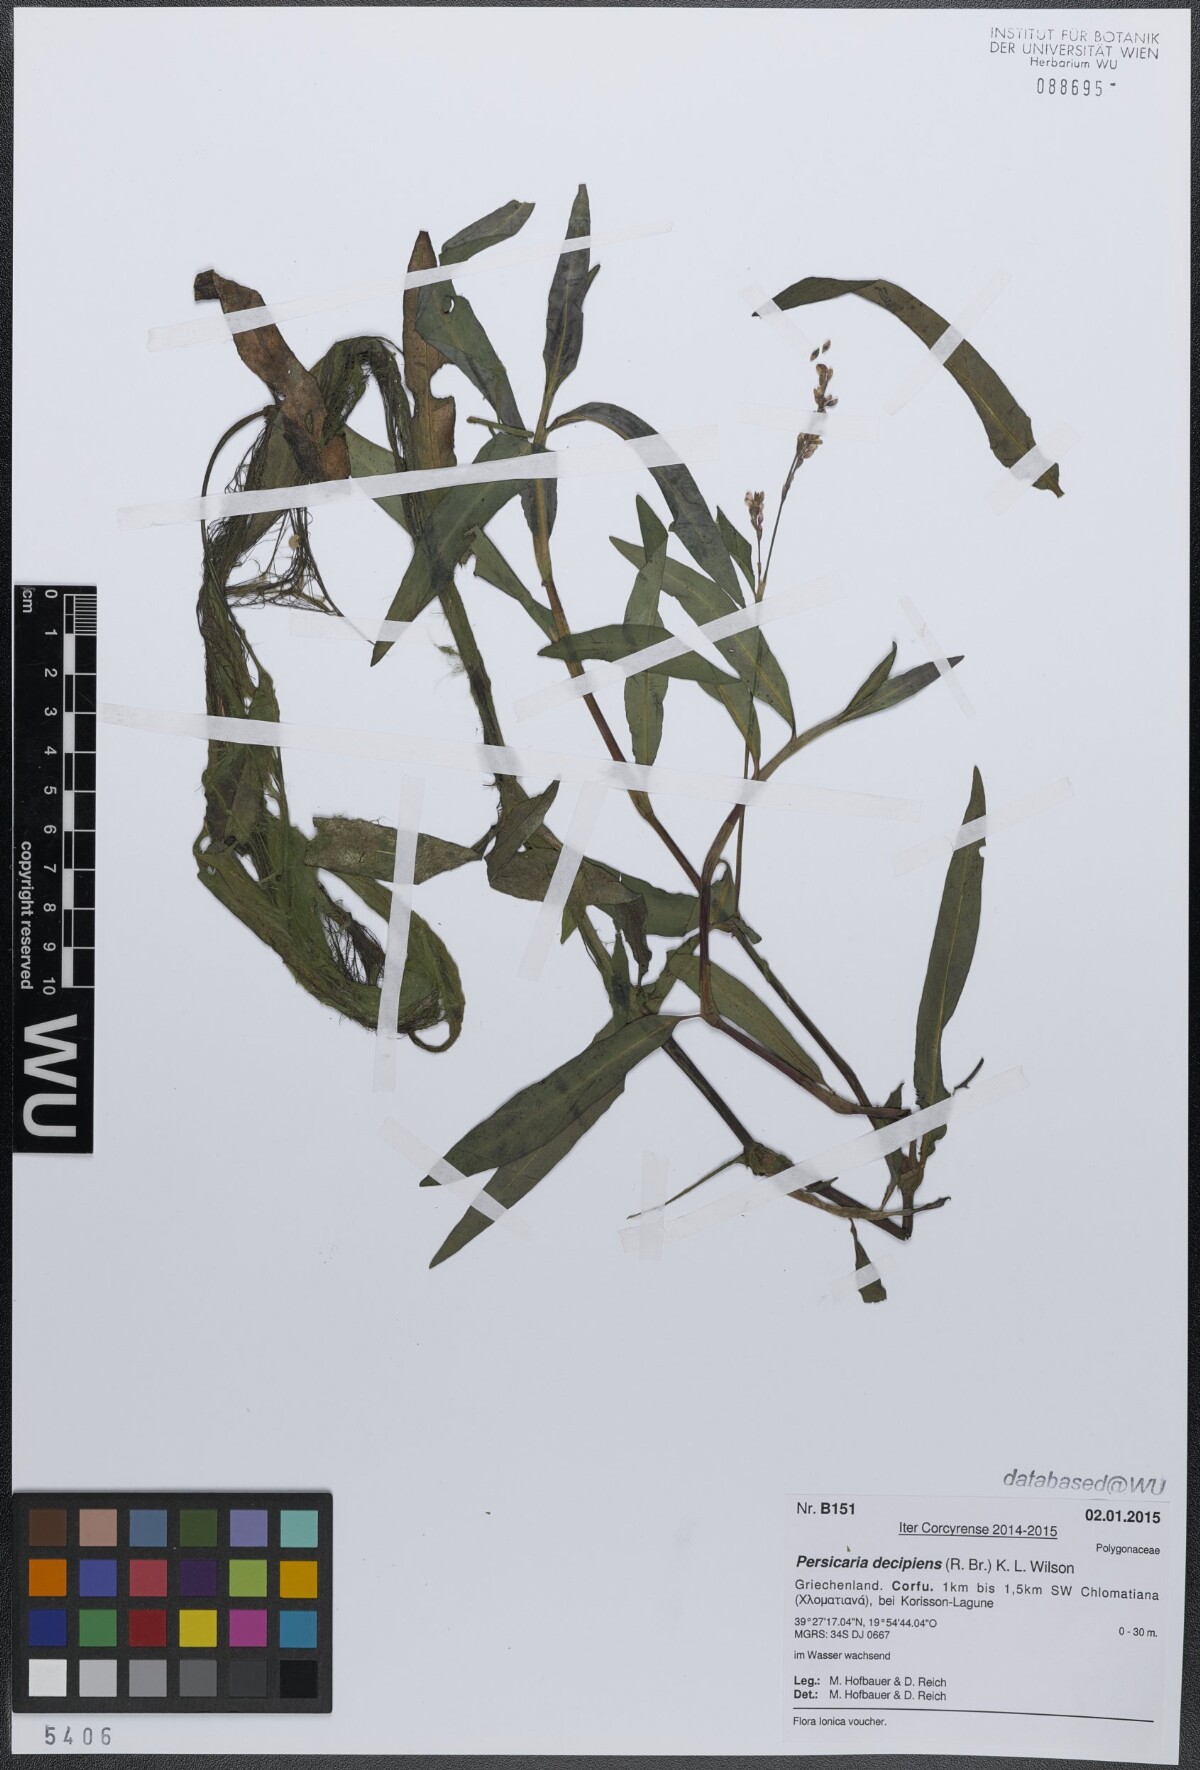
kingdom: Plantae
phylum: Tracheophyta
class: Magnoliopsida
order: Caryophyllales
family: Polygonaceae
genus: Persicaria
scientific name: Persicaria decipiens
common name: Willow-weed
